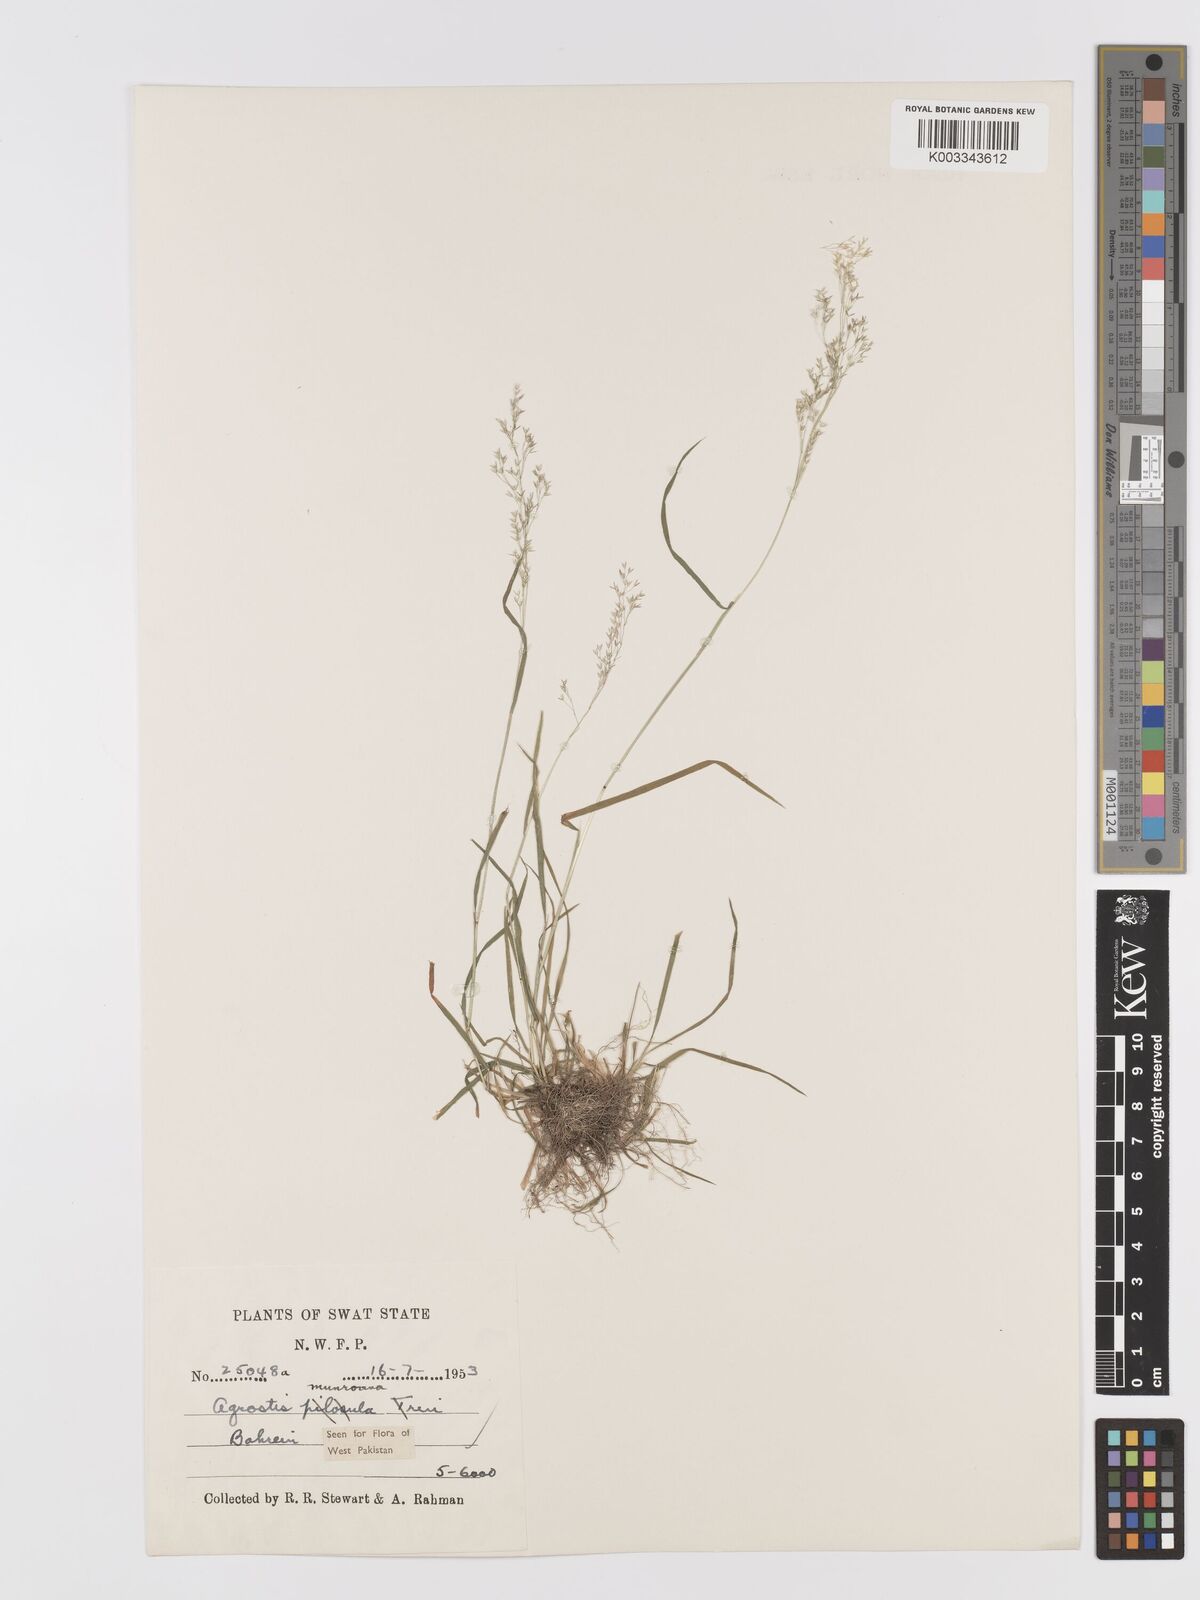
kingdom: Plantae
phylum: Tracheophyta
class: Liliopsida
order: Poales
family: Poaceae
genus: Agrostis
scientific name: Agrostis munroana
